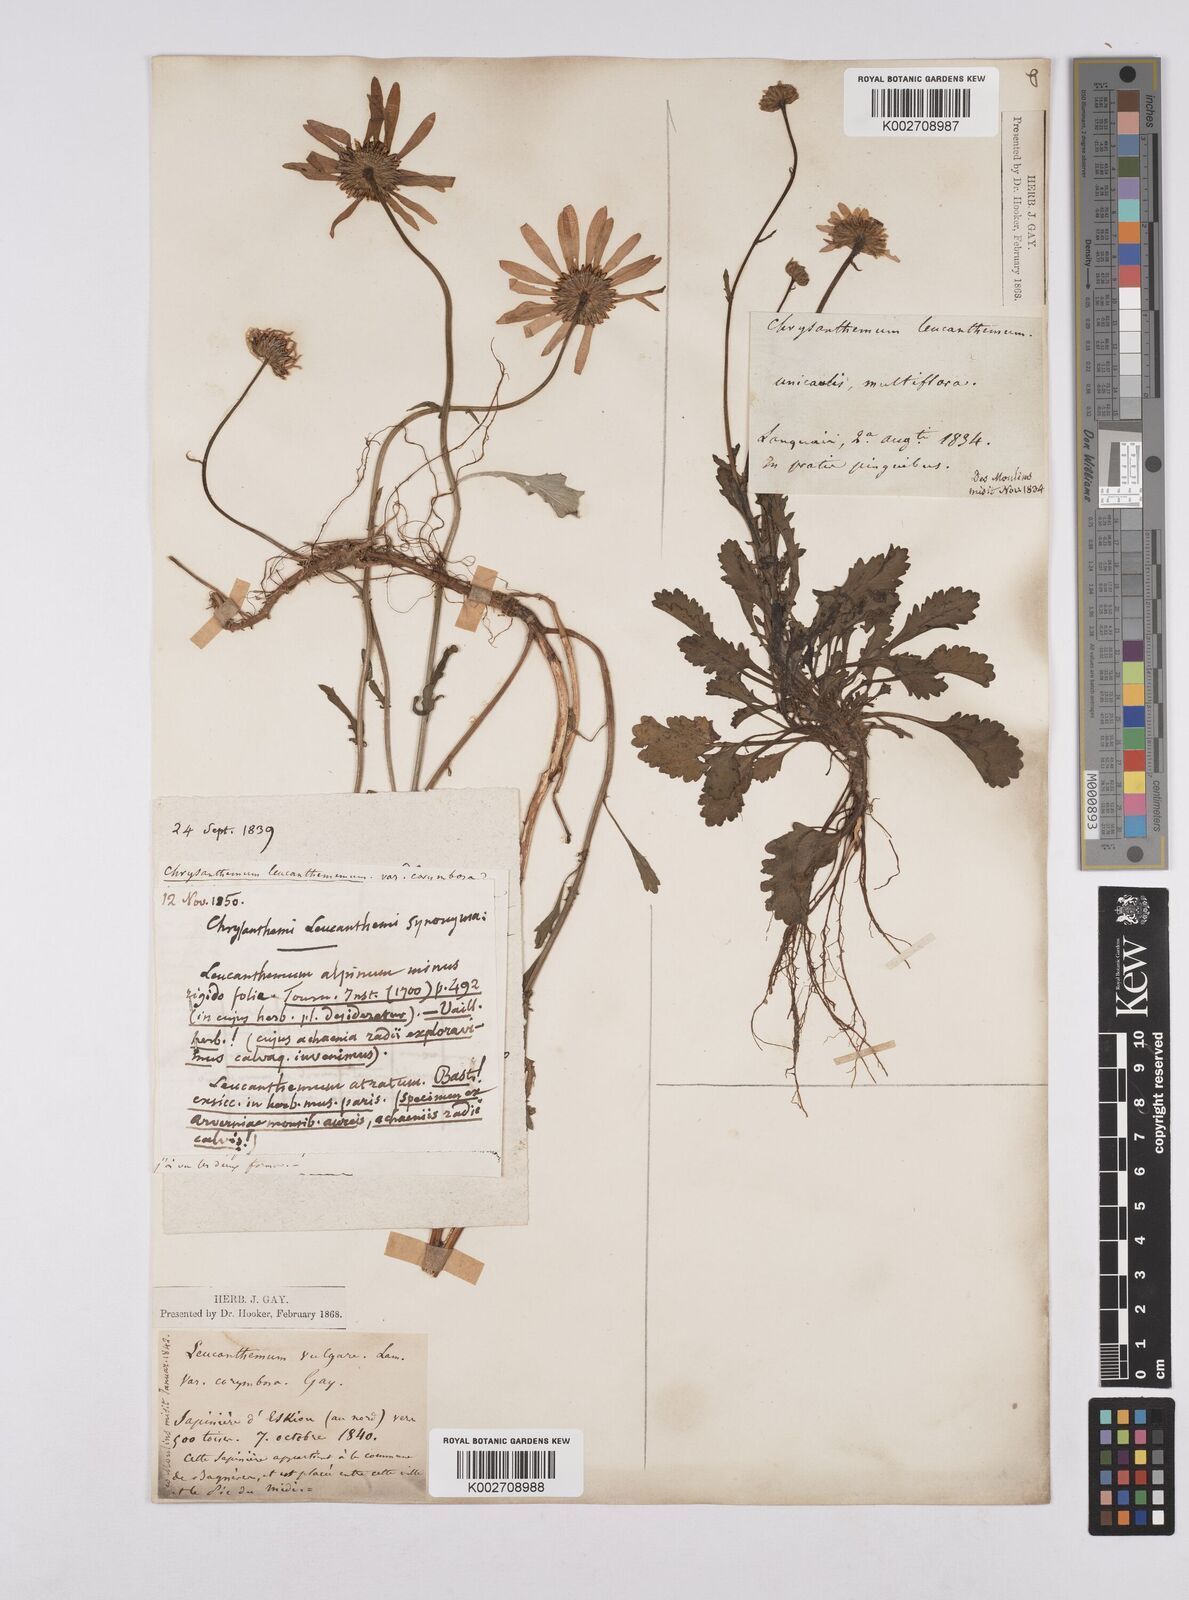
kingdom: Plantae
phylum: Tracheophyta
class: Magnoliopsida
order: Asterales
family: Asteraceae
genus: Leucanthemum
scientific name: Leucanthemum vulgare
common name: Oxeye daisy
